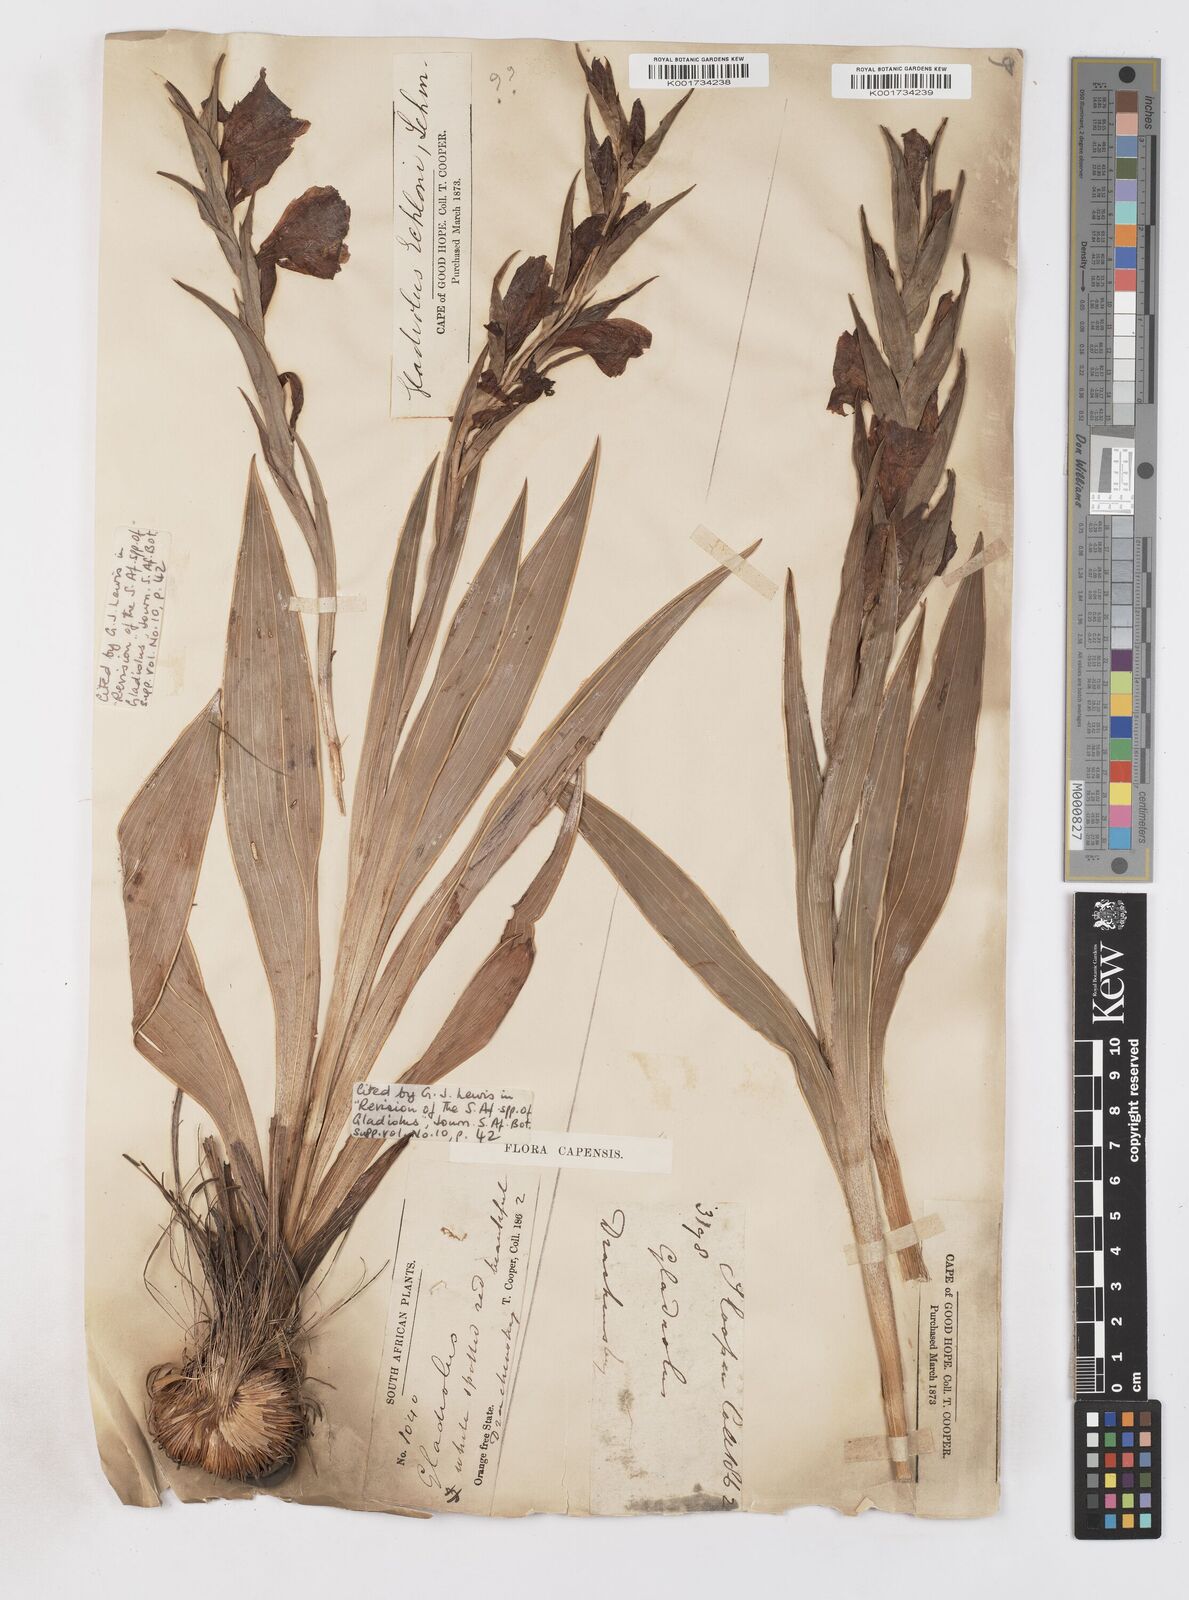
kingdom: Plantae
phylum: Tracheophyta
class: Liliopsida
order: Asparagales
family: Iridaceae
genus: Gladiolus
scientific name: Gladiolus ecklonii
